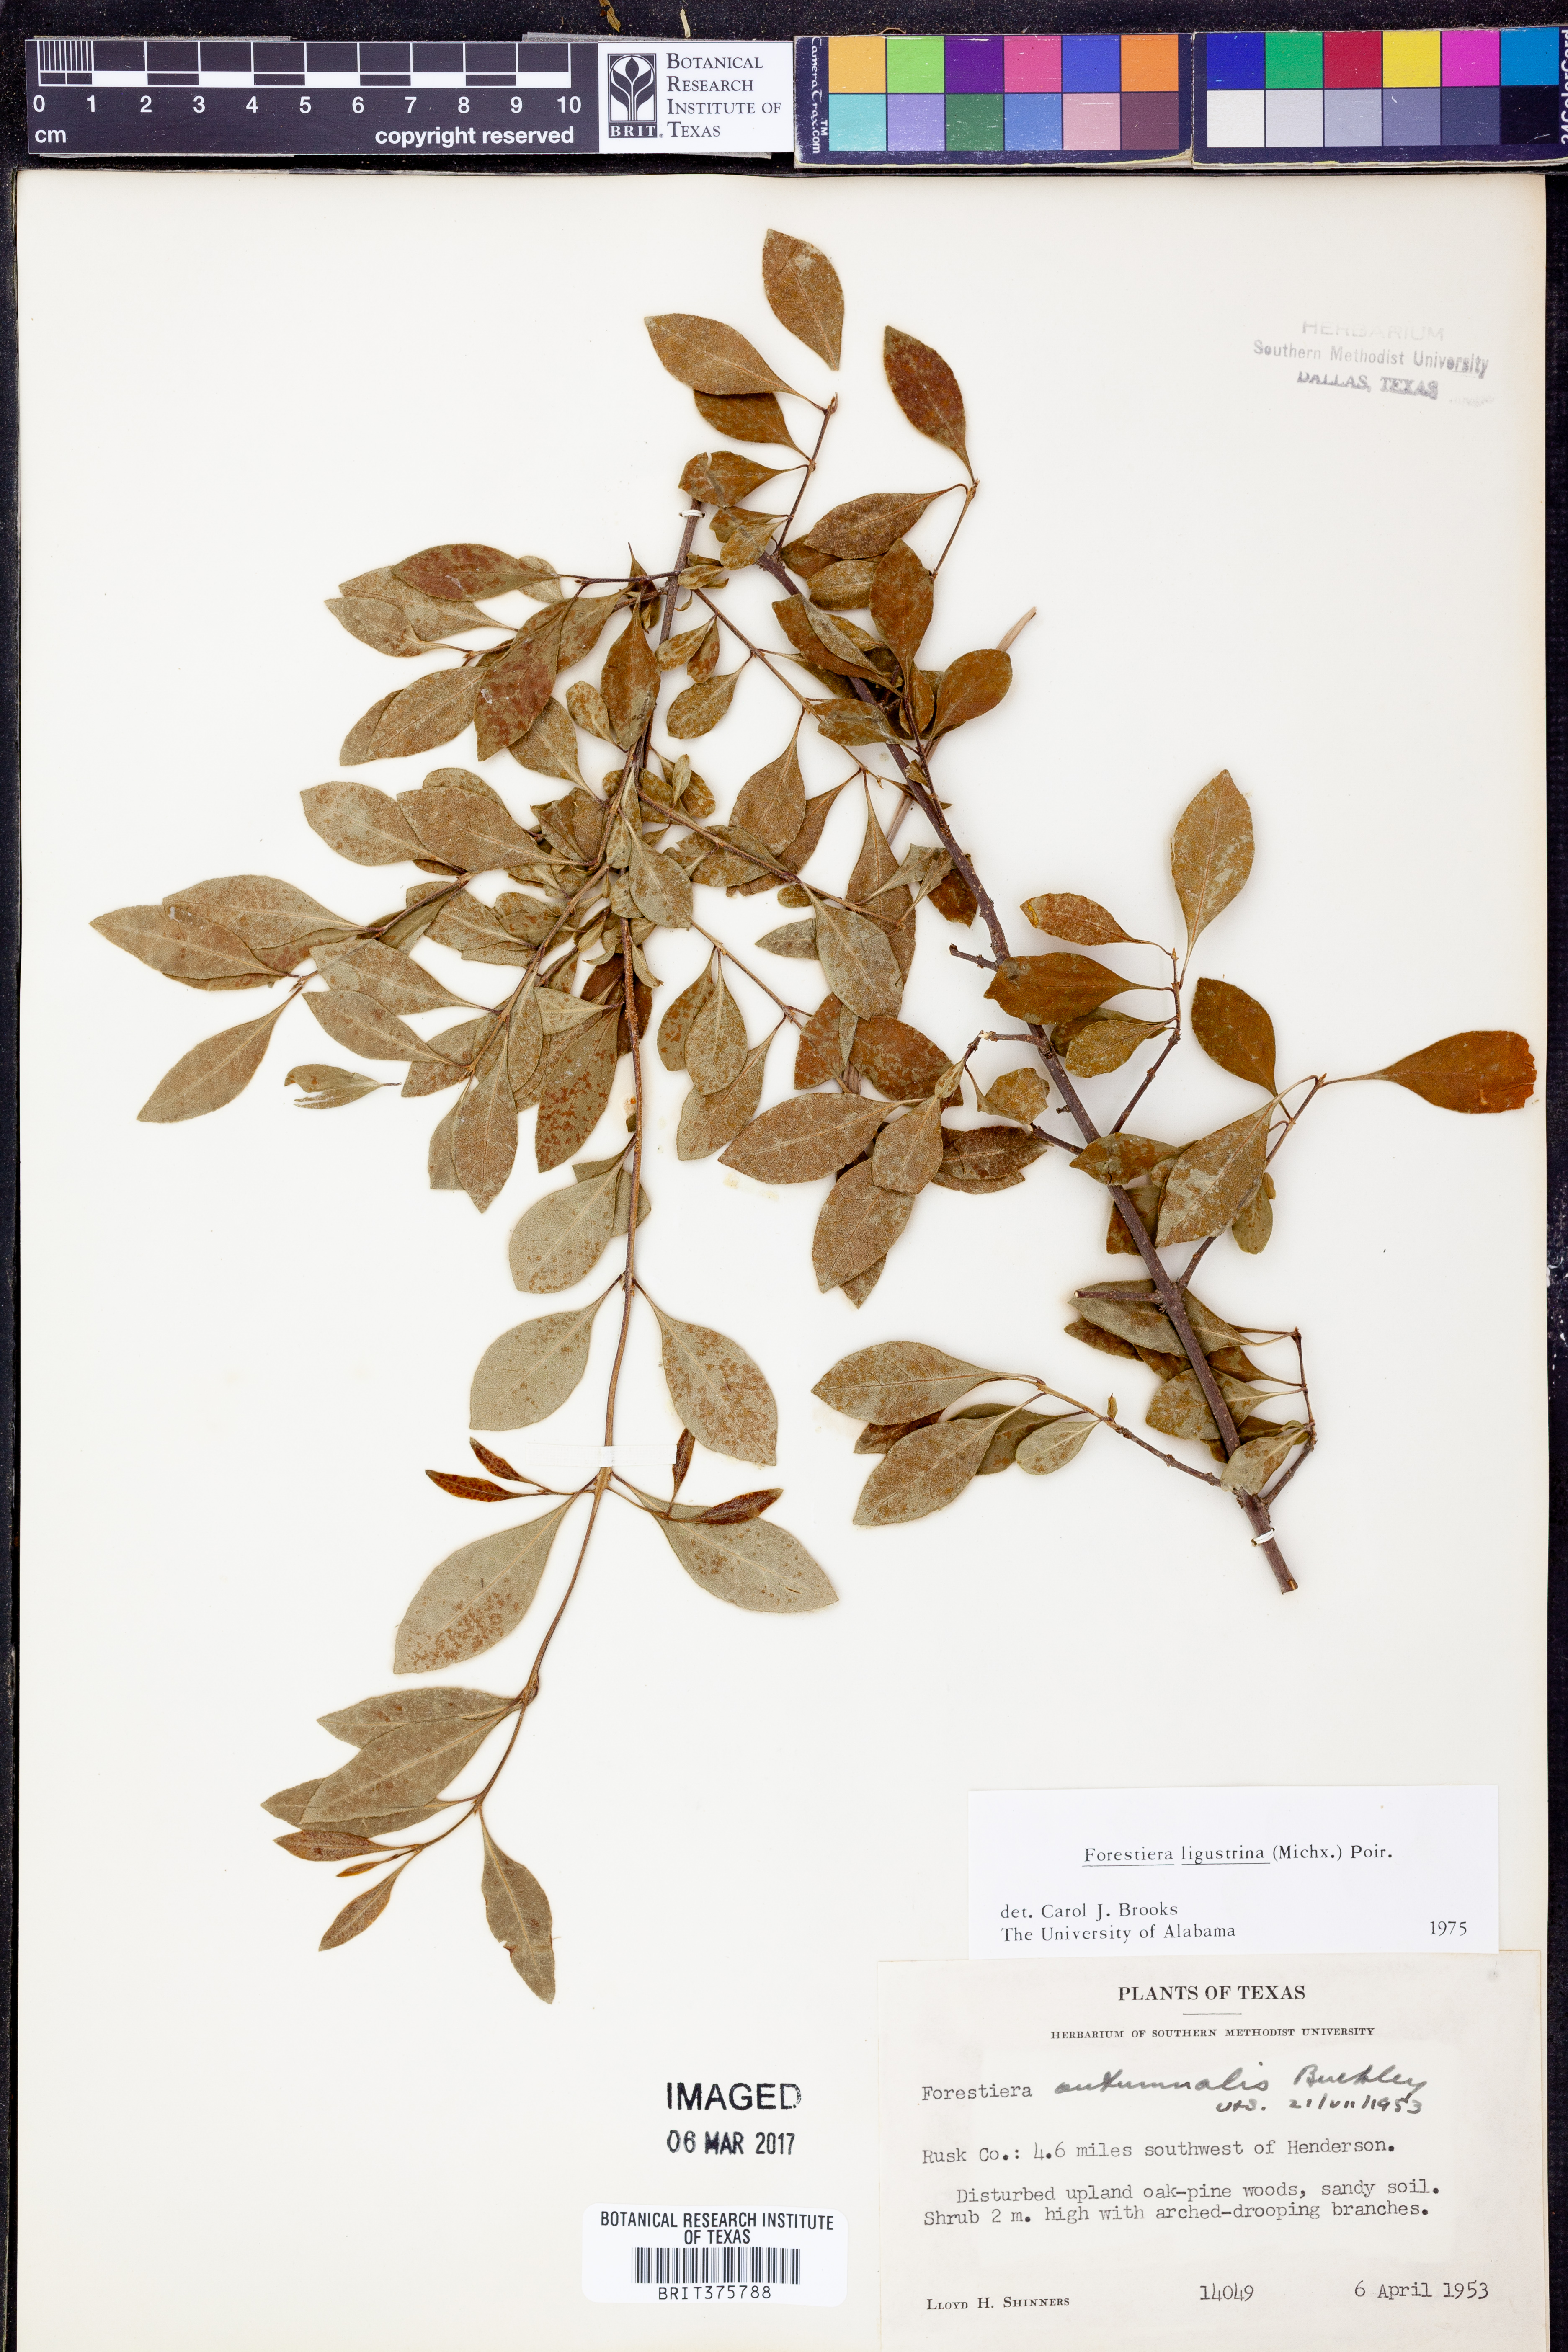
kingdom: Plantae
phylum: Tracheophyta
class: Magnoliopsida
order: Lamiales
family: Oleaceae
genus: Forestiera
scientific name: Forestiera ligustrina
